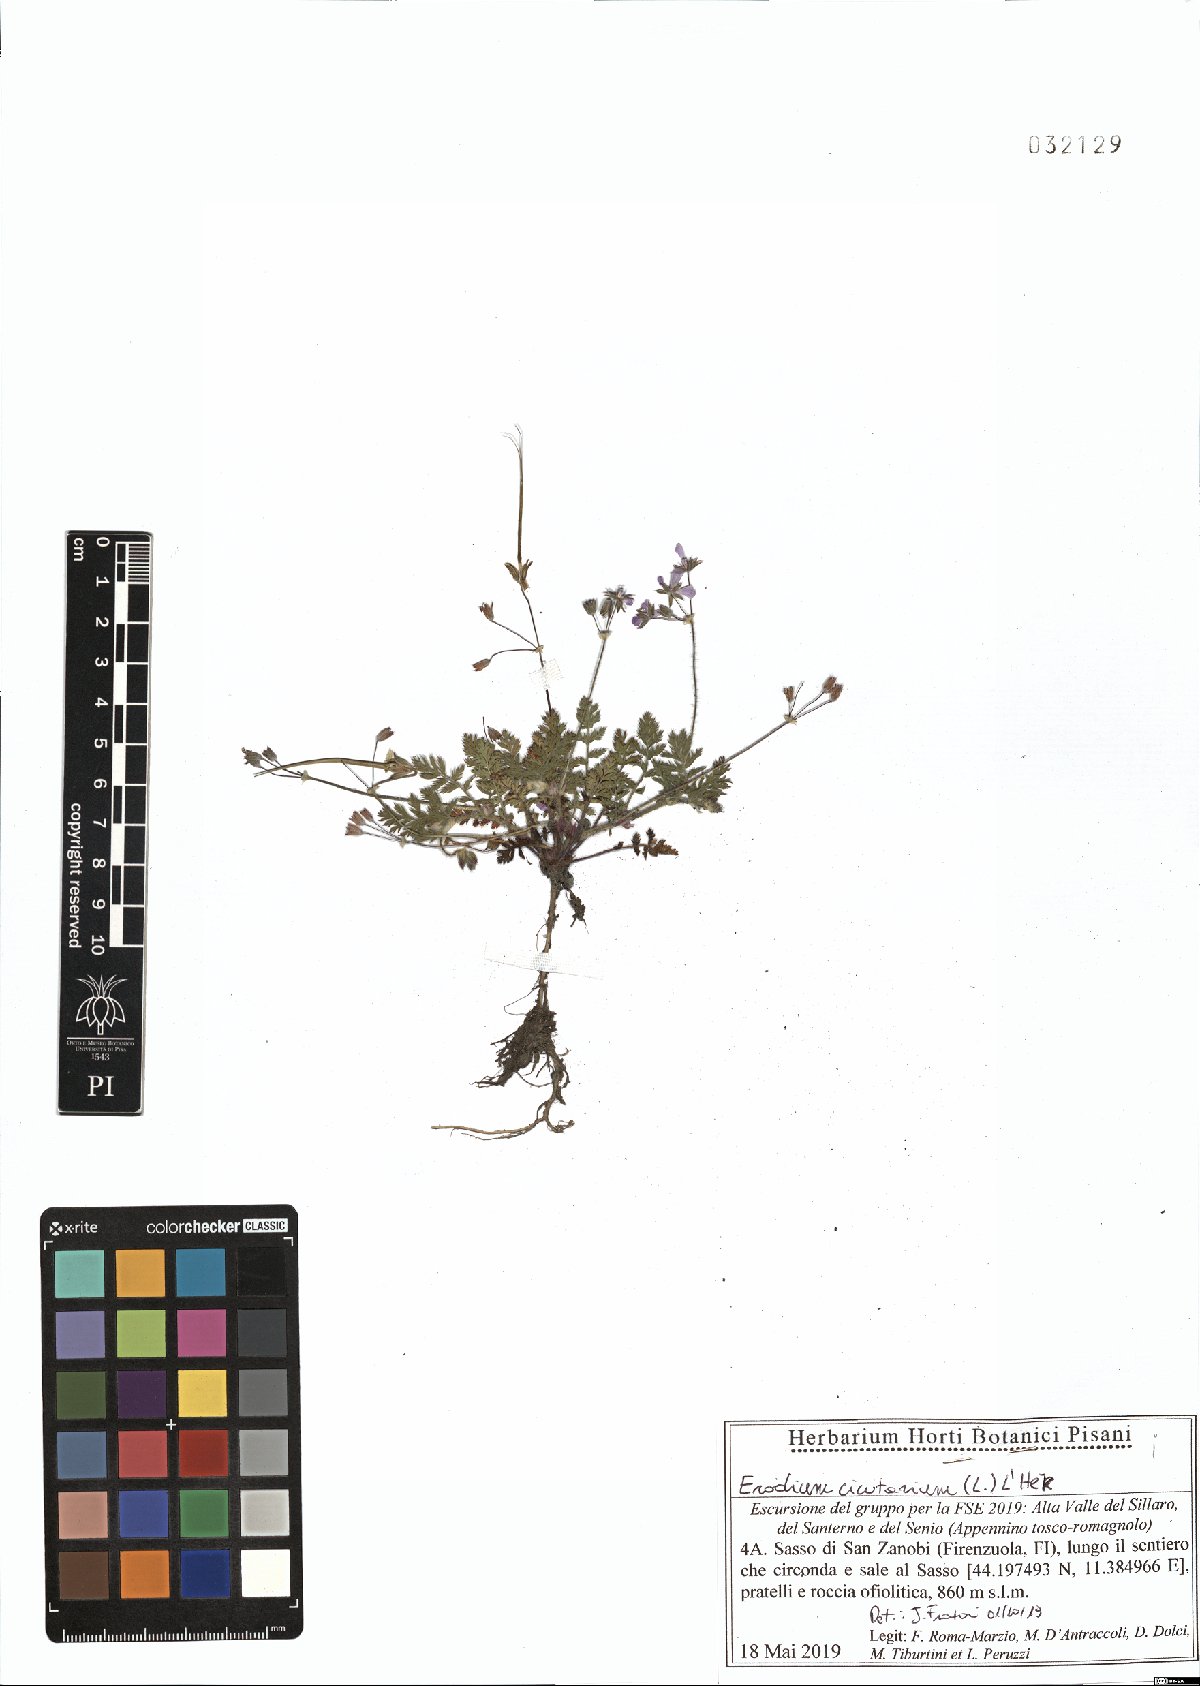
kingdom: Plantae
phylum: Tracheophyta
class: Magnoliopsida
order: Geraniales
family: Geraniaceae
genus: Erodium
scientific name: Erodium cicutarium
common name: Common stork's-bill
